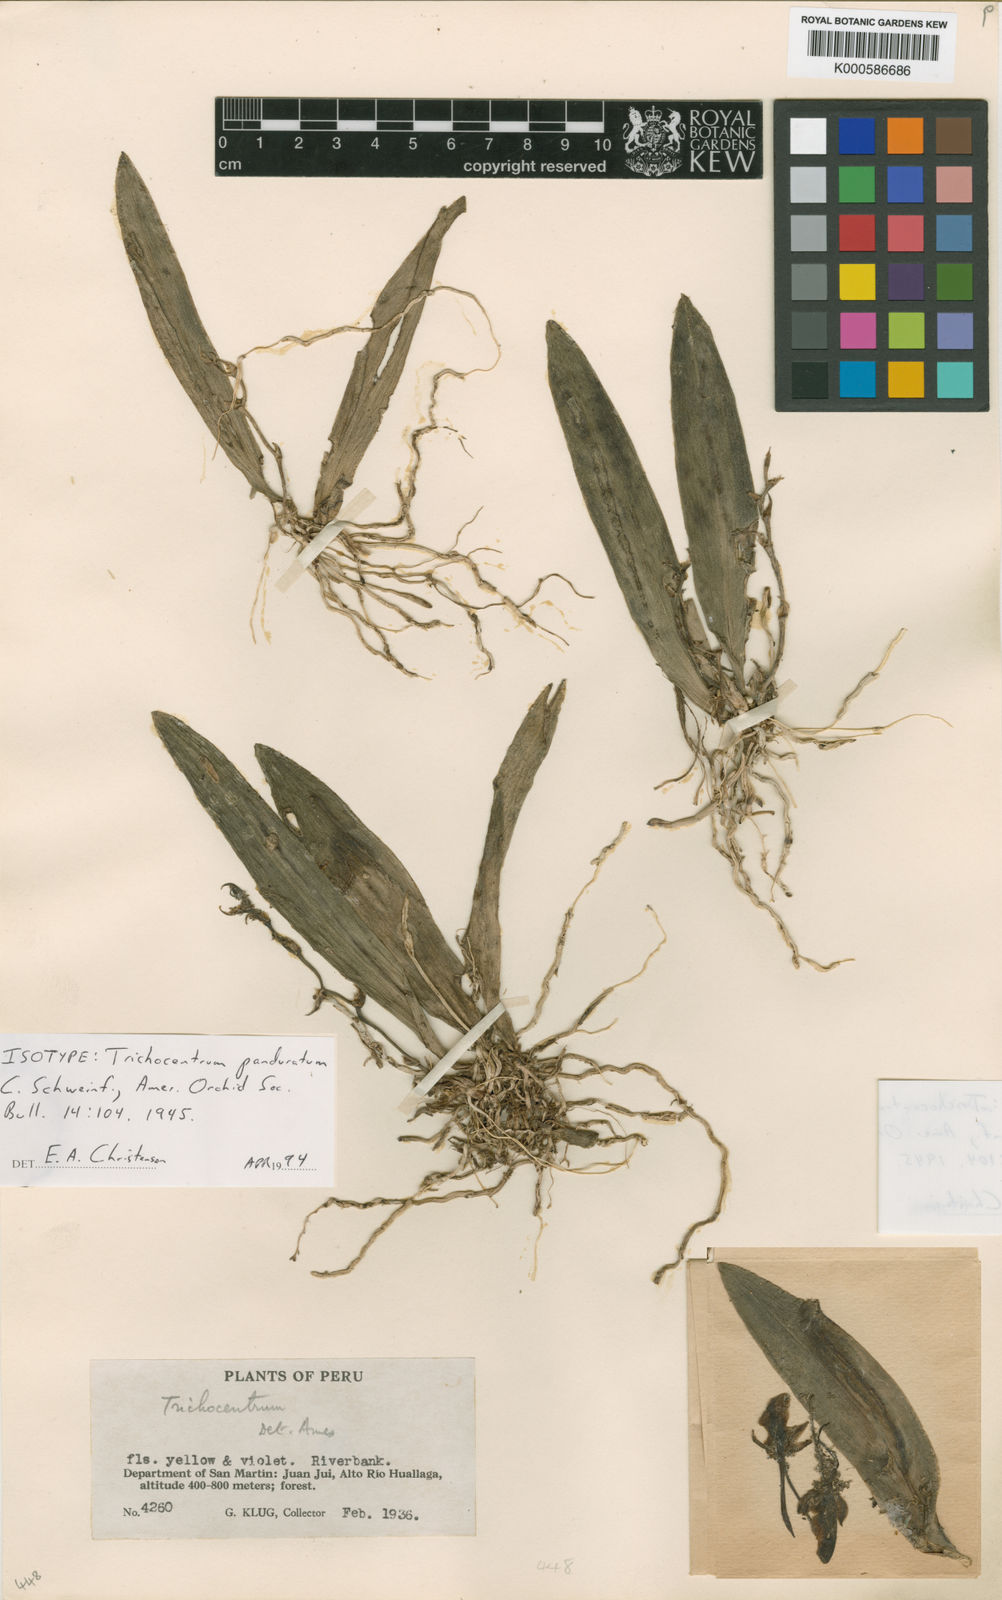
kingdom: Plantae
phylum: Tracheophyta
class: Liliopsida
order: Asparagales
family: Orchidaceae
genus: Trichocentrum
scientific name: Trichocentrum panduratum
